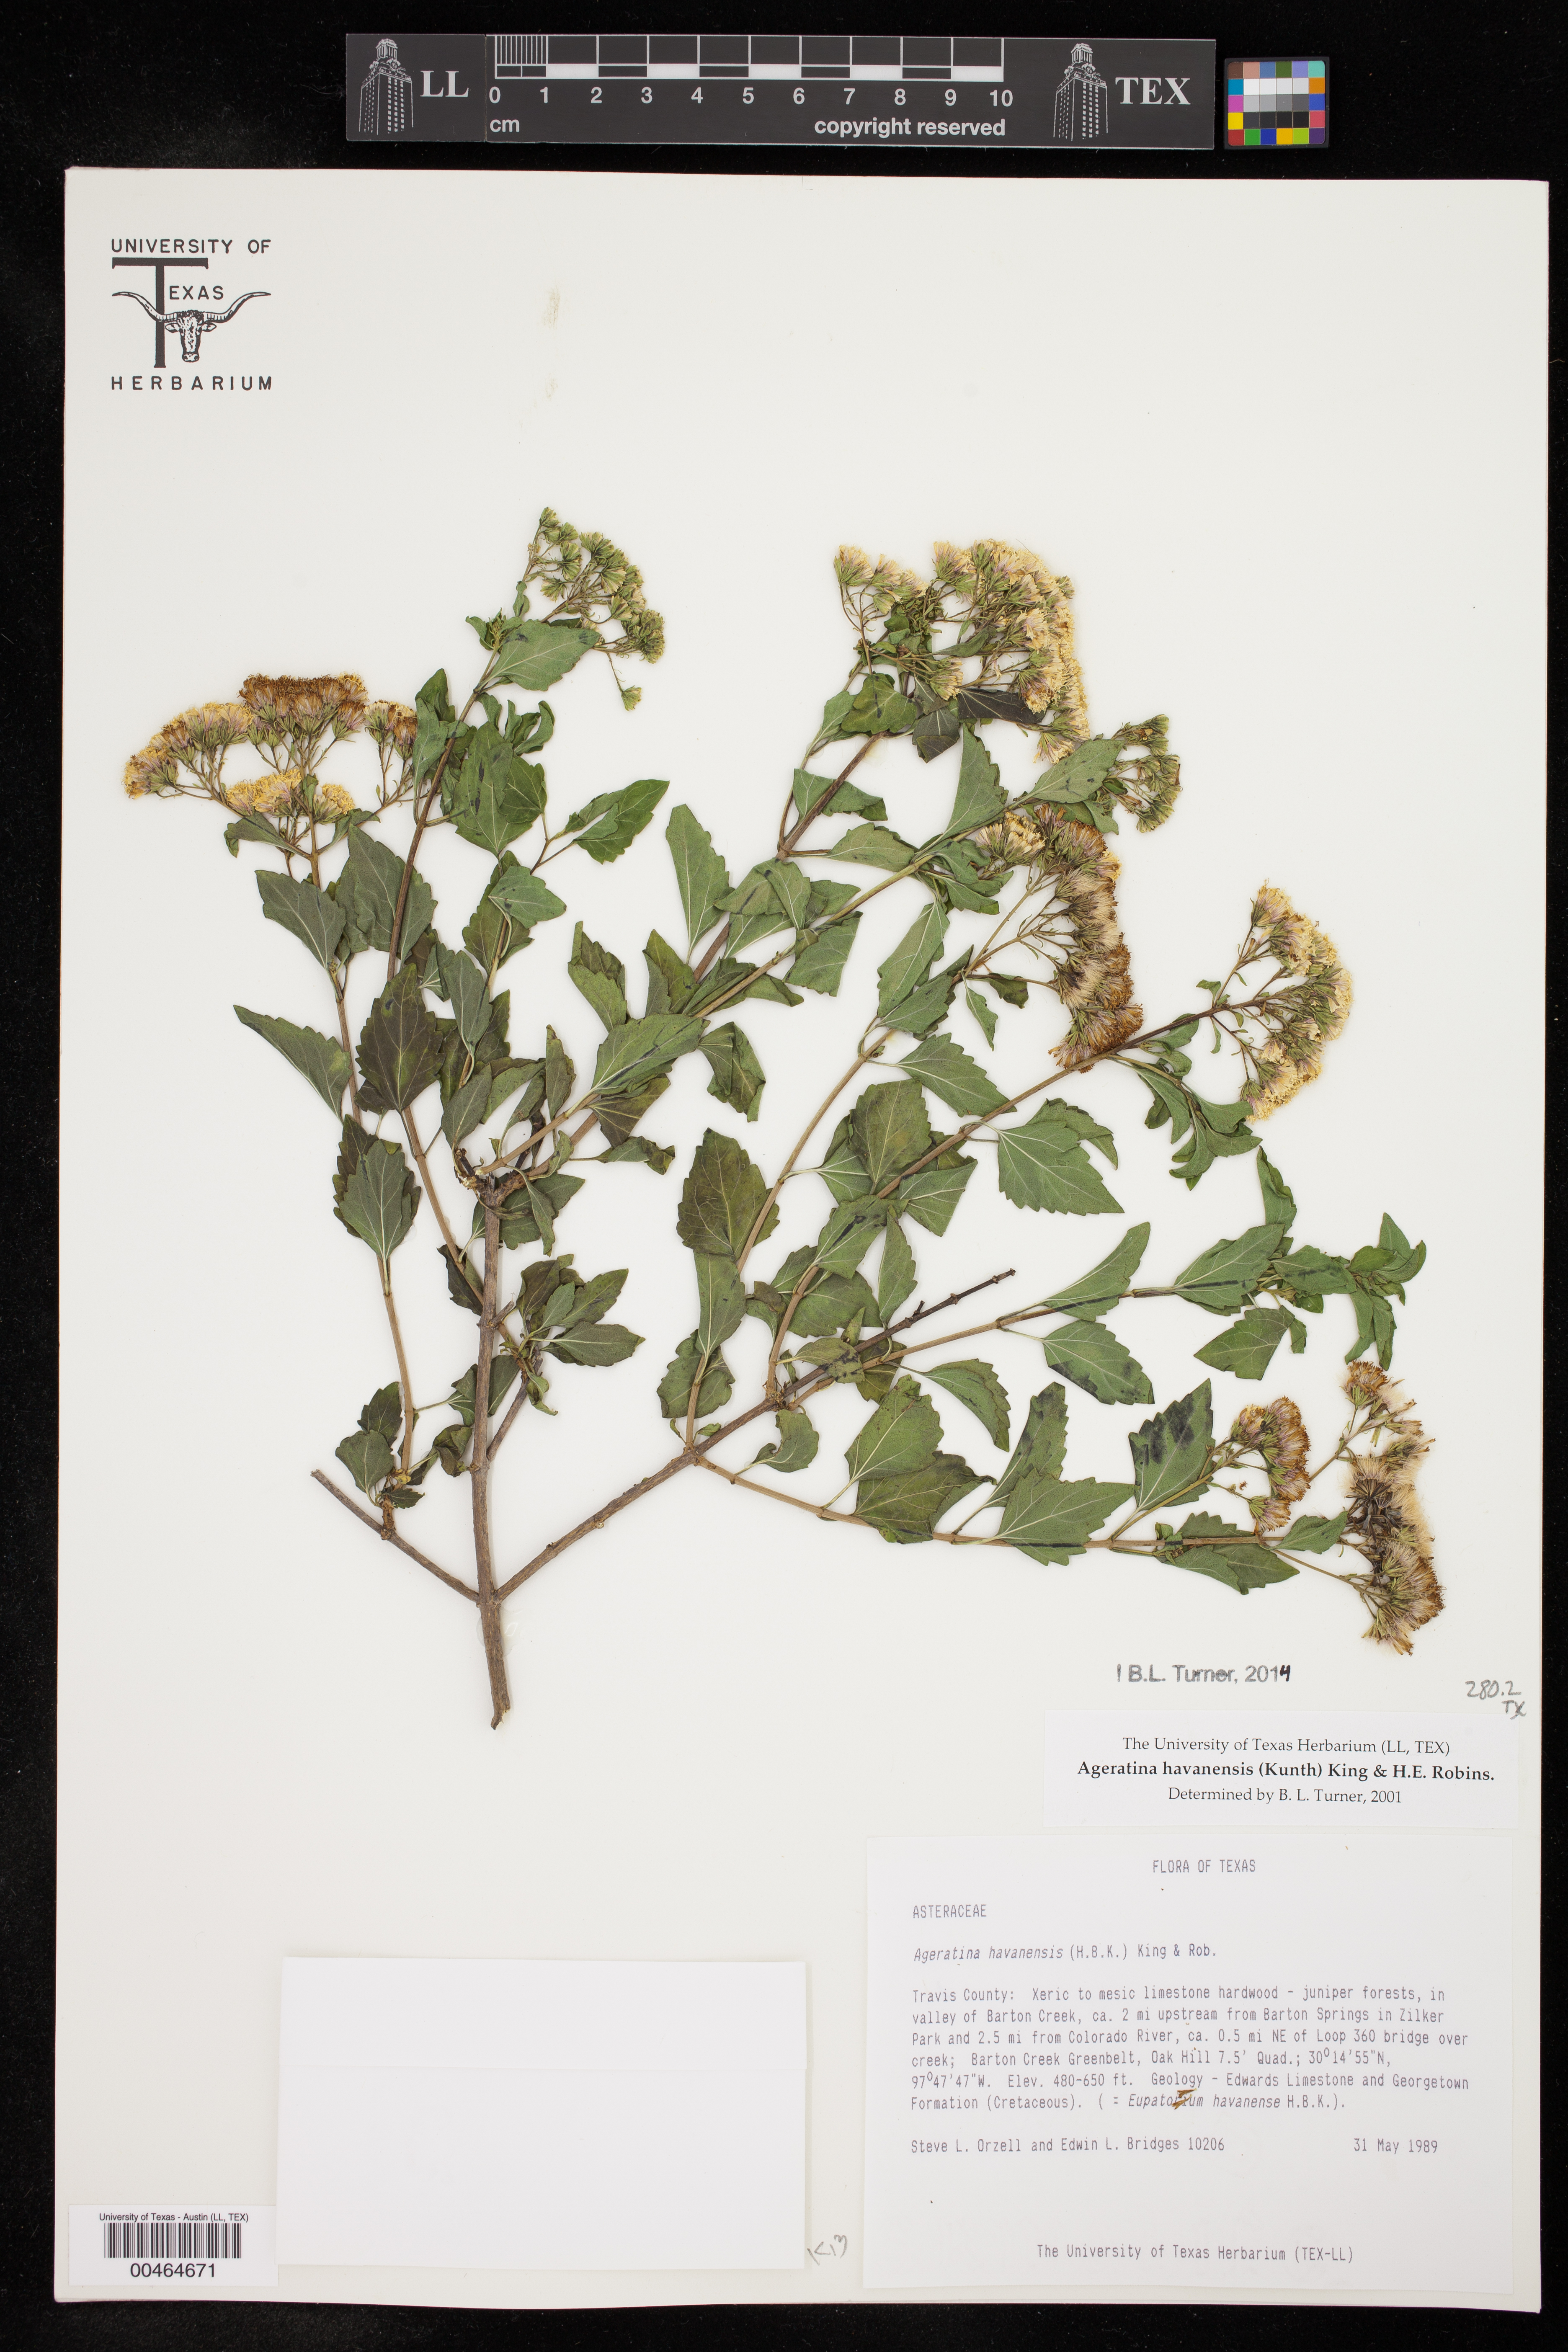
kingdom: Plantae
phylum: Tracheophyta
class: Magnoliopsida
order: Asterales
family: Asteraceae
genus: Ageratina
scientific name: Ageratina havanensis
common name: Havana snakeroot
